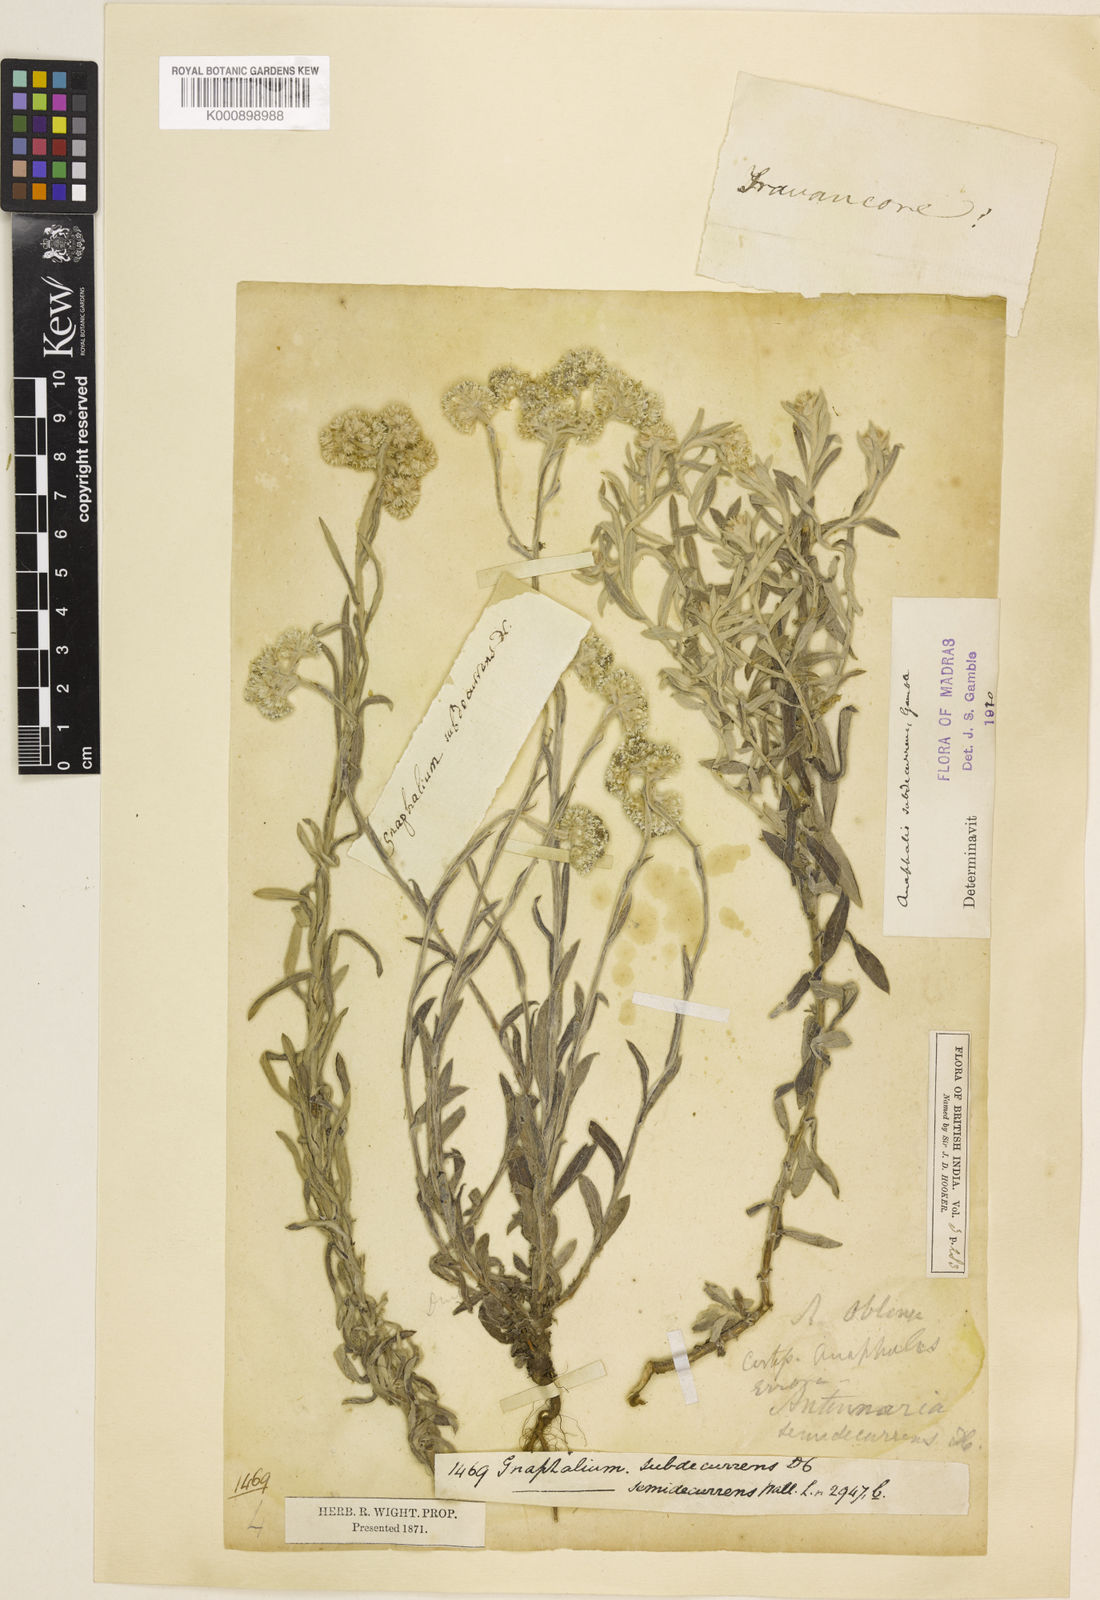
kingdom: Plantae
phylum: Tracheophyta
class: Magnoliopsida
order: Asterales
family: Asteraceae
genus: Anaphalis
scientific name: Anaphalis subdecurrens
